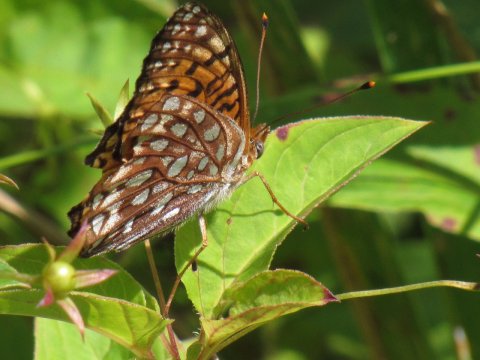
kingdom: Animalia
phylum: Arthropoda
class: Insecta
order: Lepidoptera
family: Nymphalidae
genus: Speyeria
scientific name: Speyeria atlantis
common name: Atlantis Fritillary
